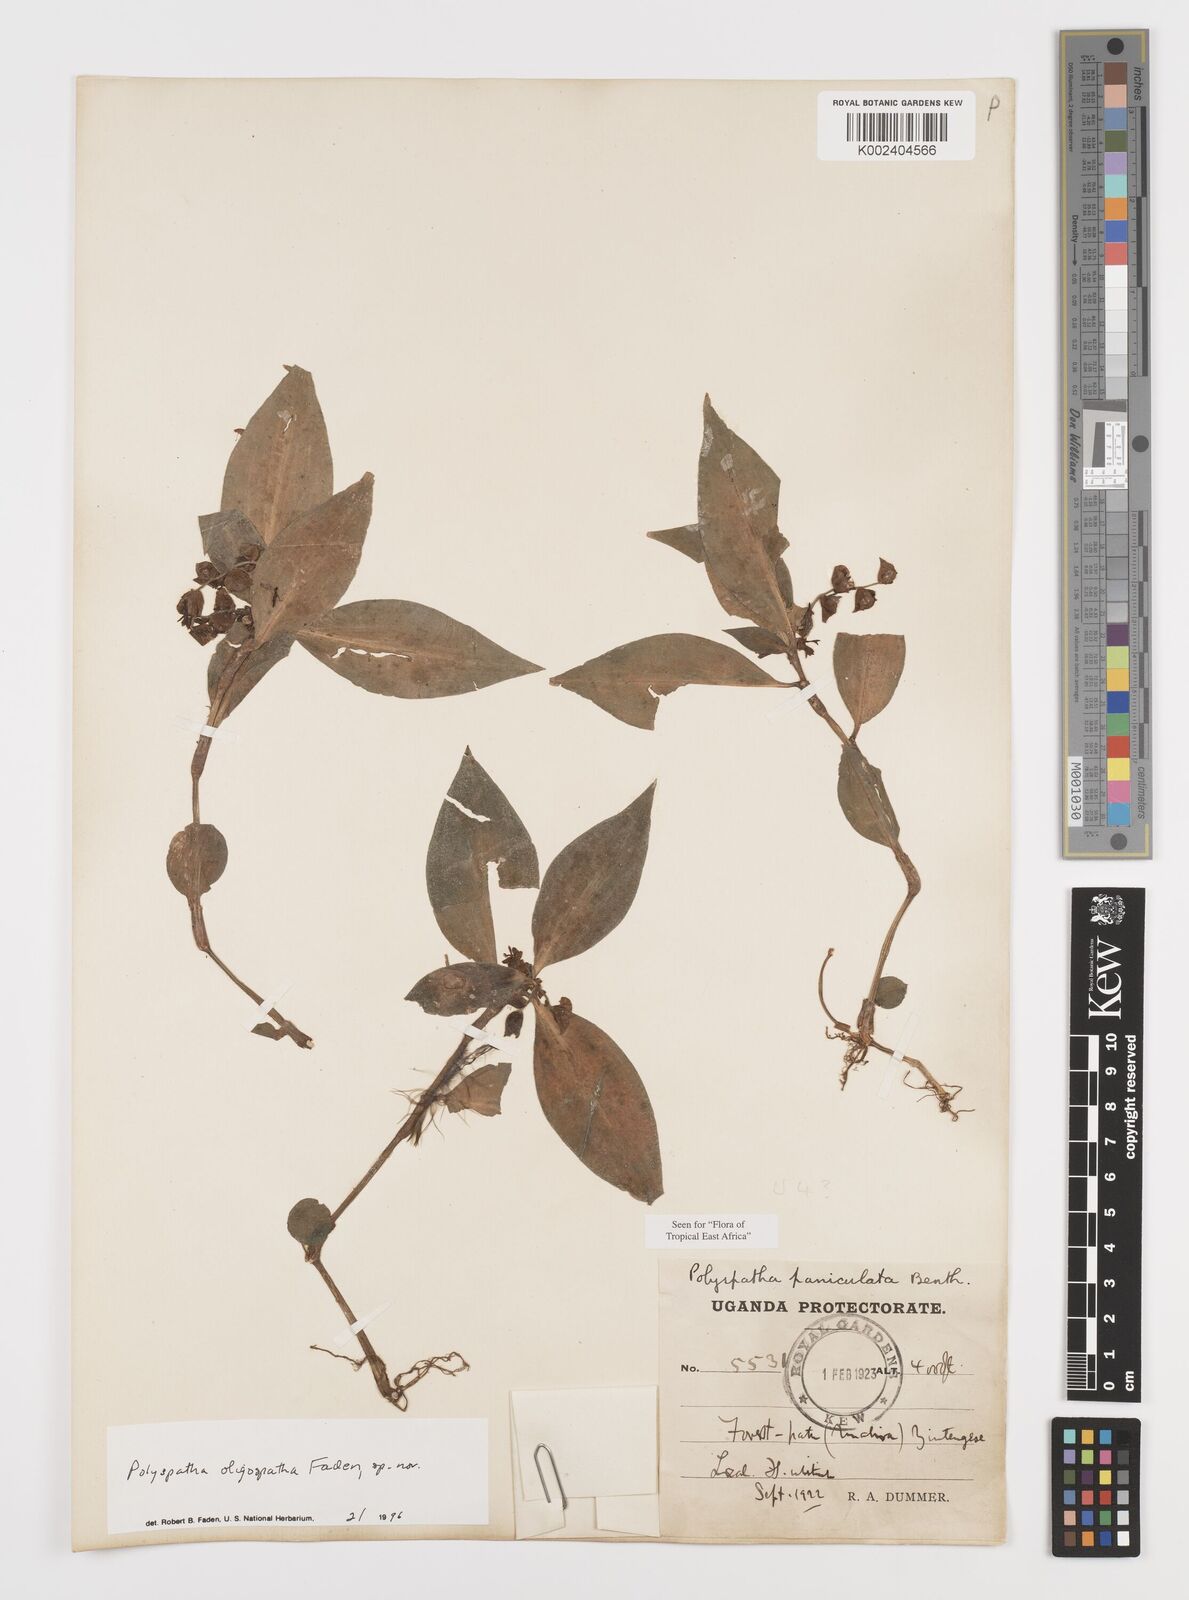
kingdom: Plantae
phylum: Tracheophyta
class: Liliopsida
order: Commelinales
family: Commelinaceae
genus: Polyspatha
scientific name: Polyspatha oligospatha
